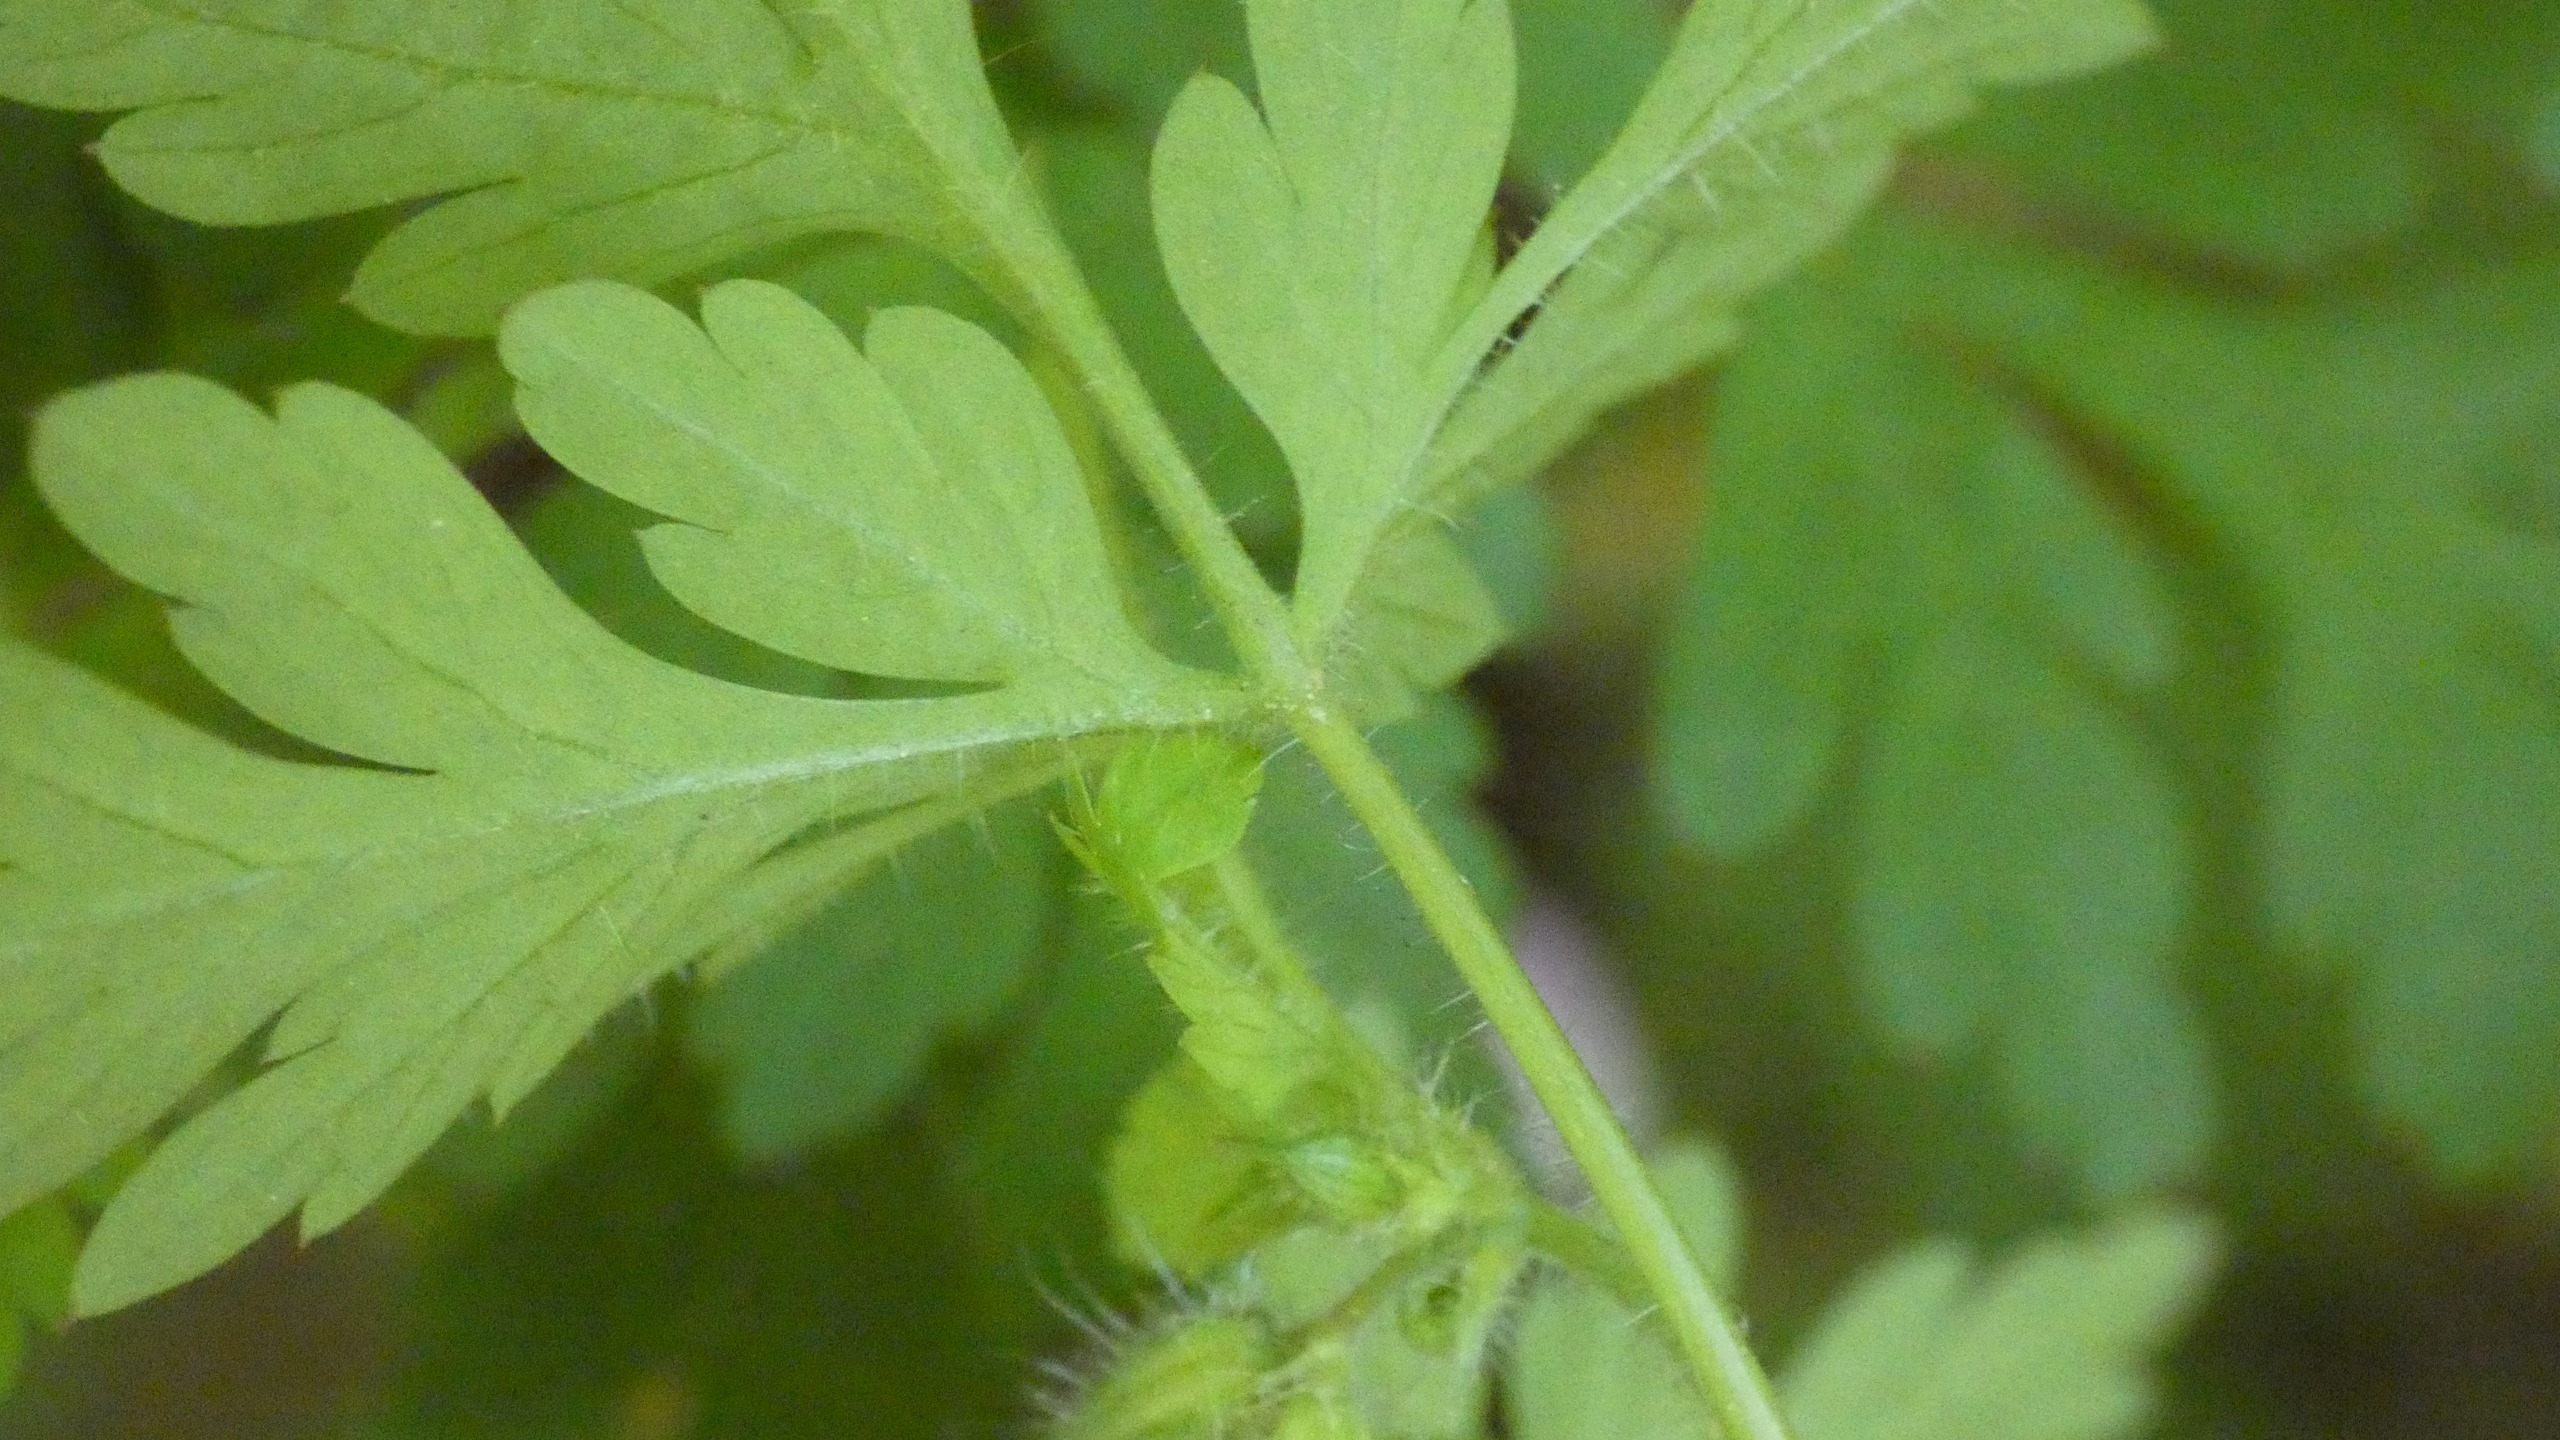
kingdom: Plantae
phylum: Tracheophyta
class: Magnoliopsida
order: Geraniales
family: Geraniaceae
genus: Geranium
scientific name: Geranium robertianum
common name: Stinkende storkenæb
